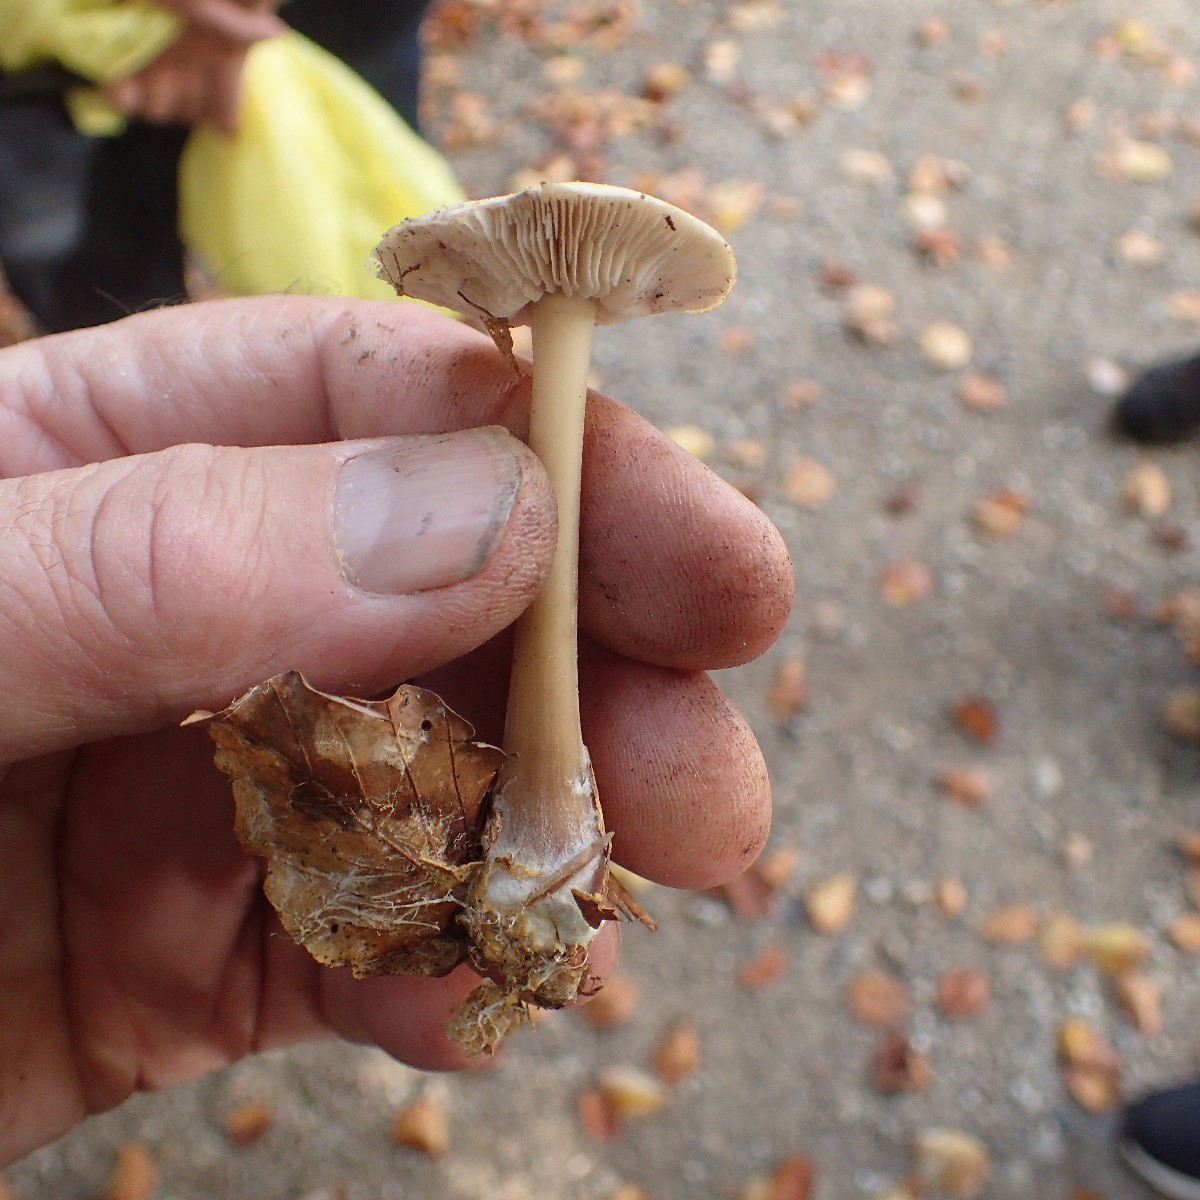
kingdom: Fungi
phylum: Basidiomycota
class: Agaricomycetes
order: Agaricales
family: Omphalotaceae
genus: Rhodocollybia
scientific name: Rhodocollybia asema
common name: horngrå fladhat
